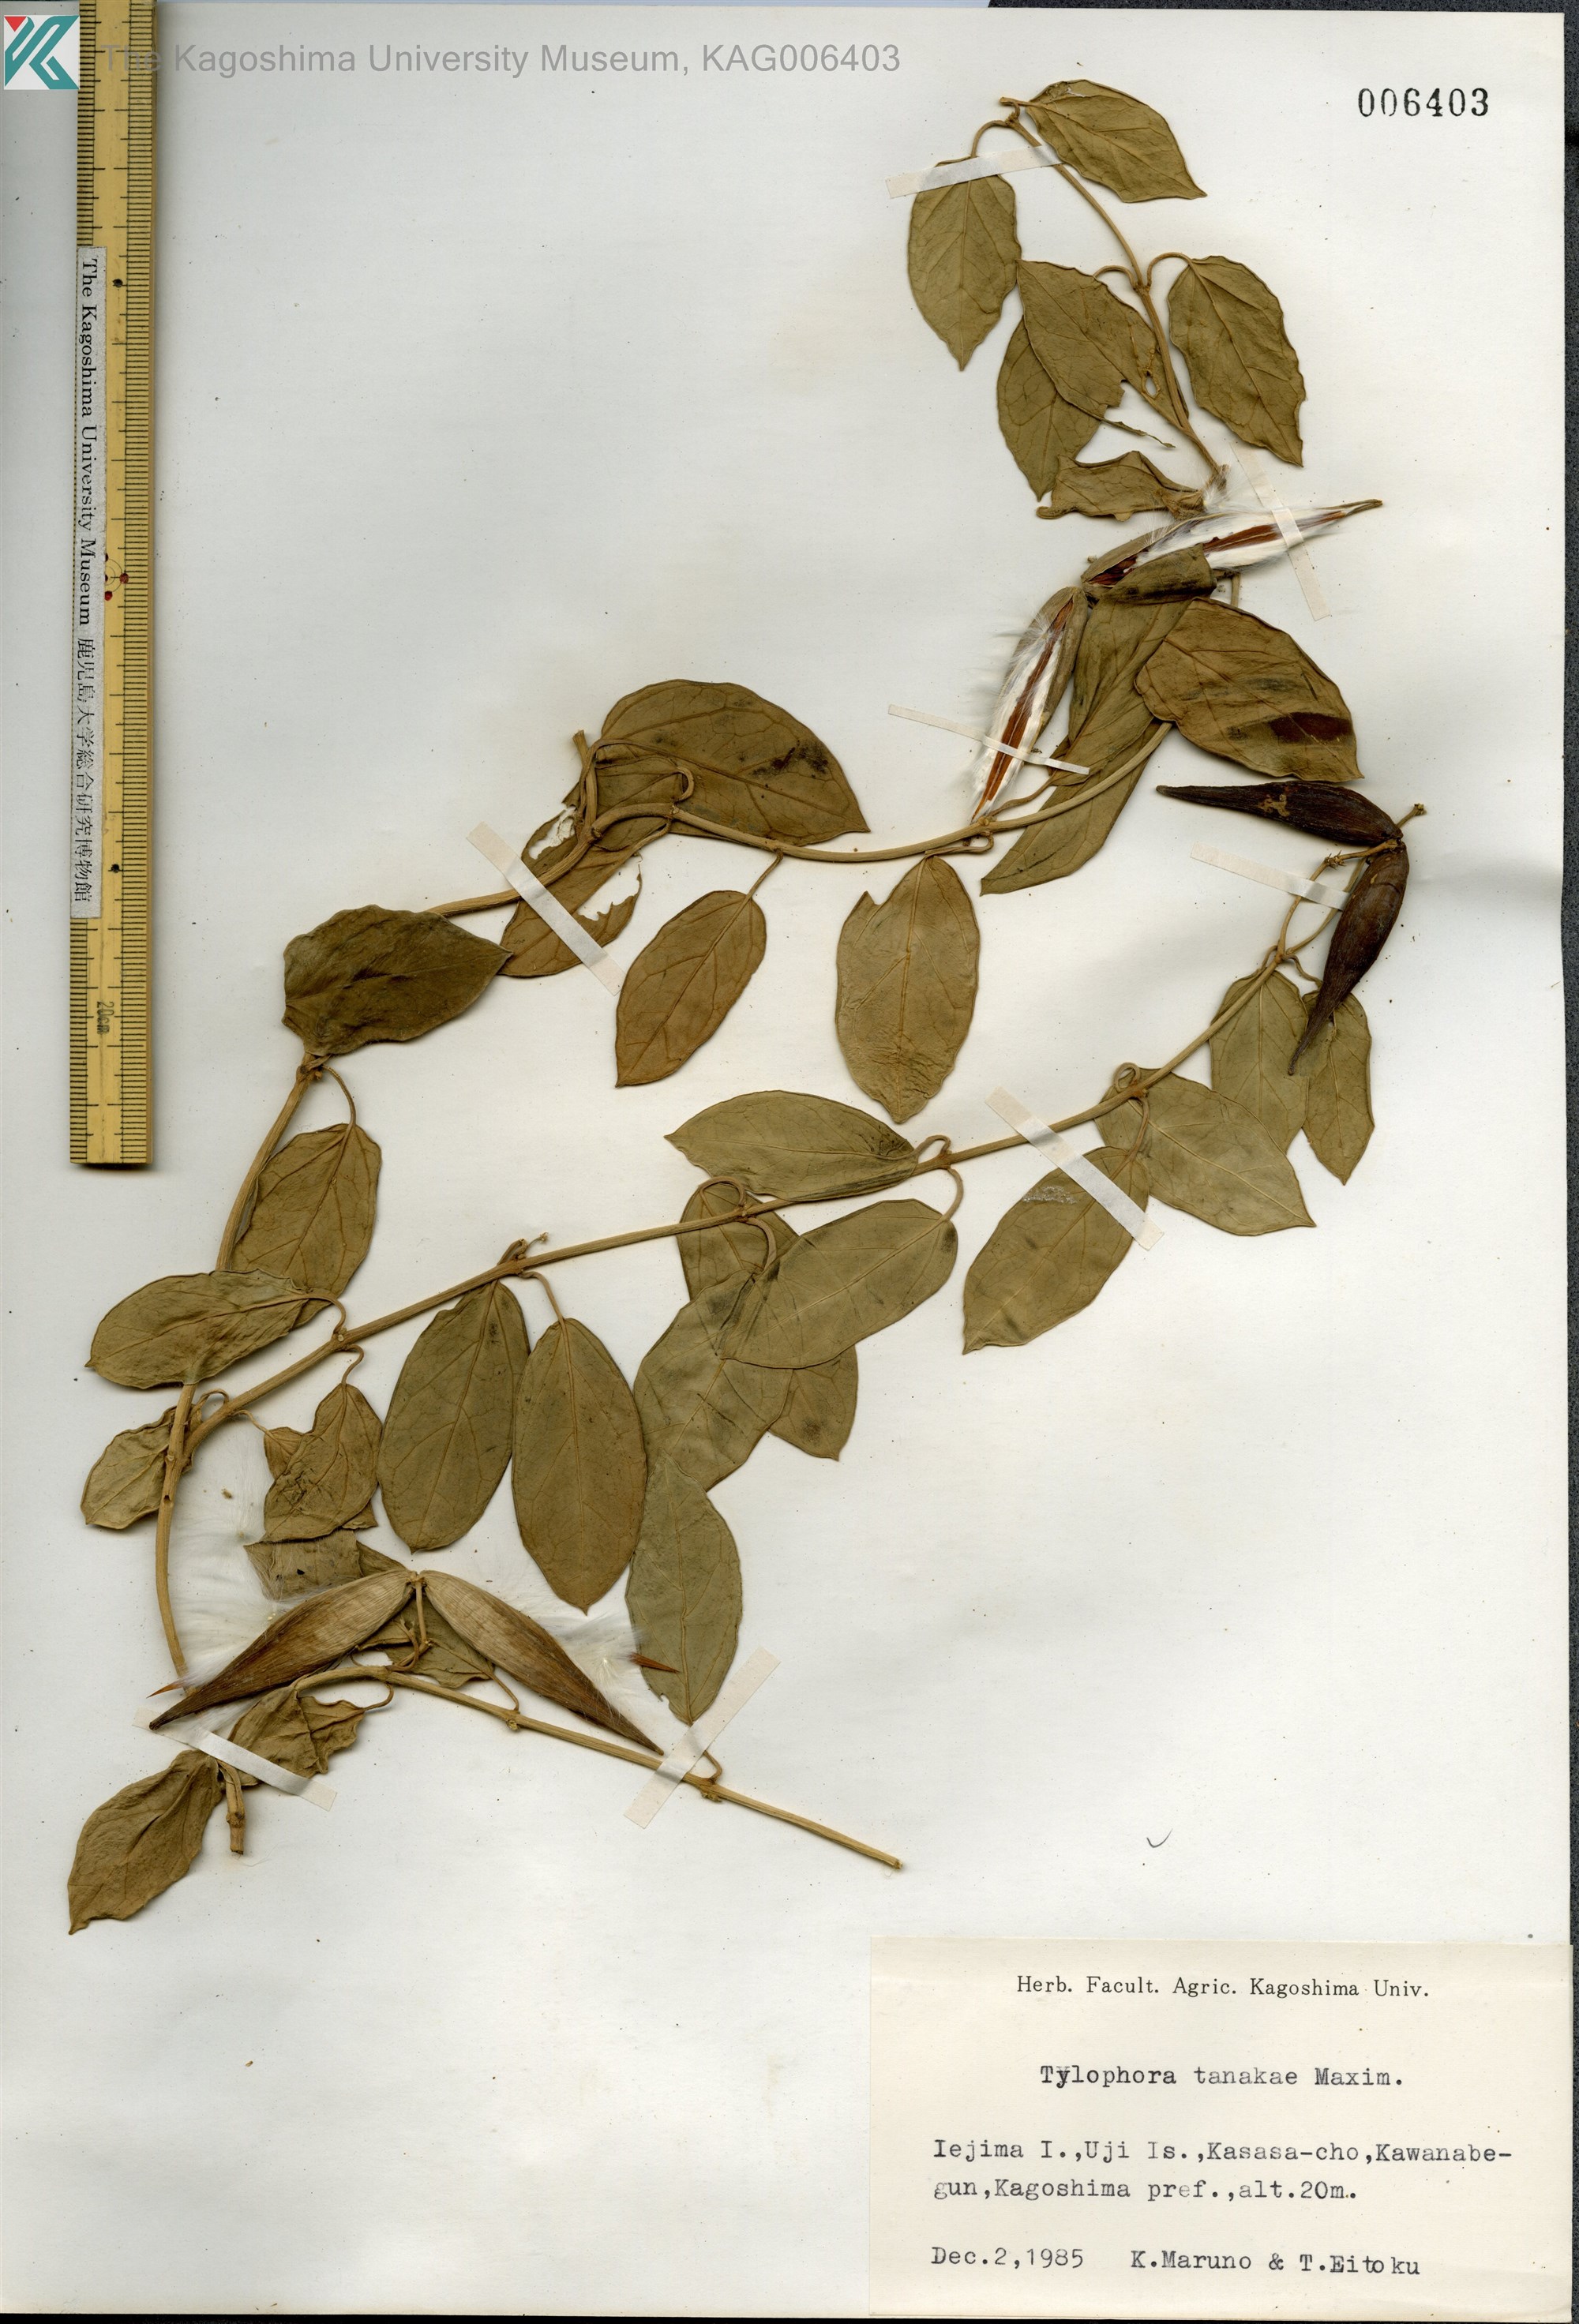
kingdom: Plantae
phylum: Tracheophyta
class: Magnoliopsida
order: Gentianales
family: Apocynaceae
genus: Vincetoxicum
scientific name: Vincetoxicum Tylophora tanakae
